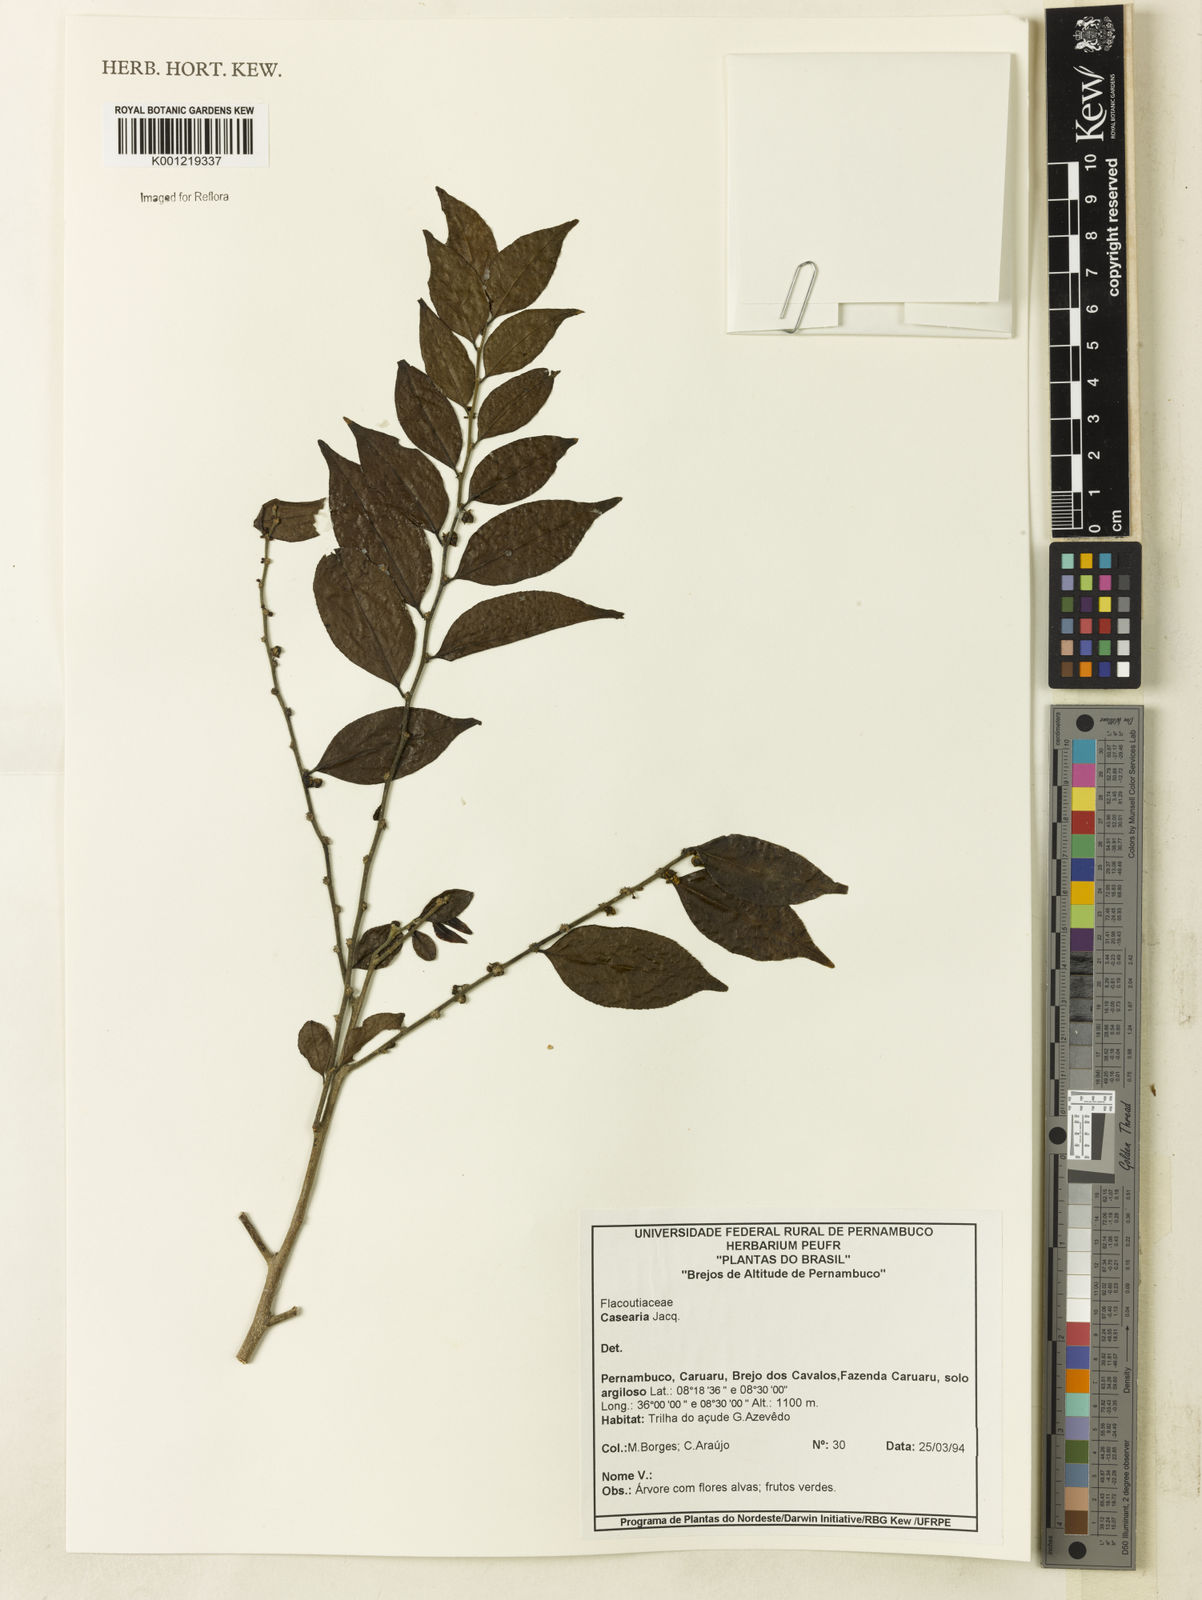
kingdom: Plantae
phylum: Tracheophyta
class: Magnoliopsida
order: Malpighiales
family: Salicaceae
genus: Casearia
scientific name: Casearia
